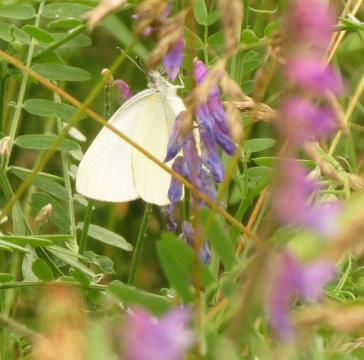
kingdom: Animalia
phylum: Arthropoda
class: Insecta
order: Lepidoptera
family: Pieridae
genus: Pieris
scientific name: Pieris rapae
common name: Cabbage White
